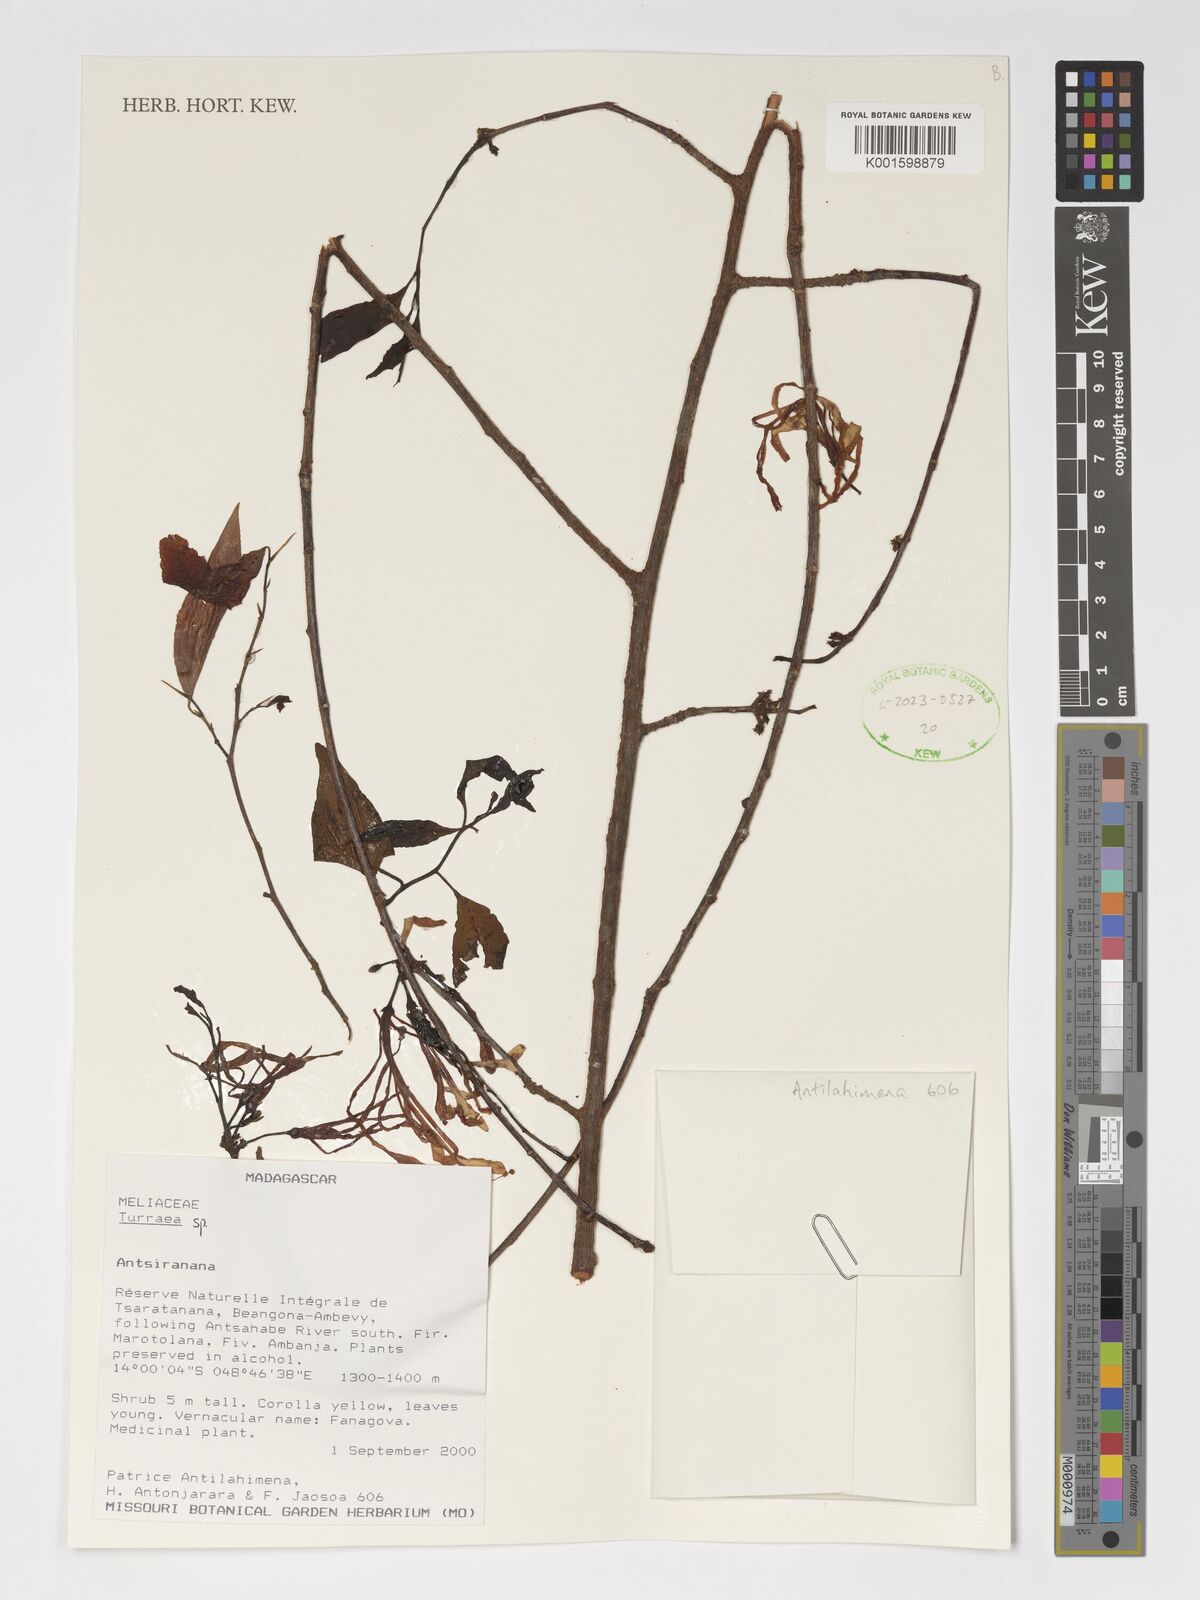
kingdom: Plantae
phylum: Tracheophyta
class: Magnoliopsida
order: Sapindales
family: Meliaceae
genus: Turraea
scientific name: Turraea
